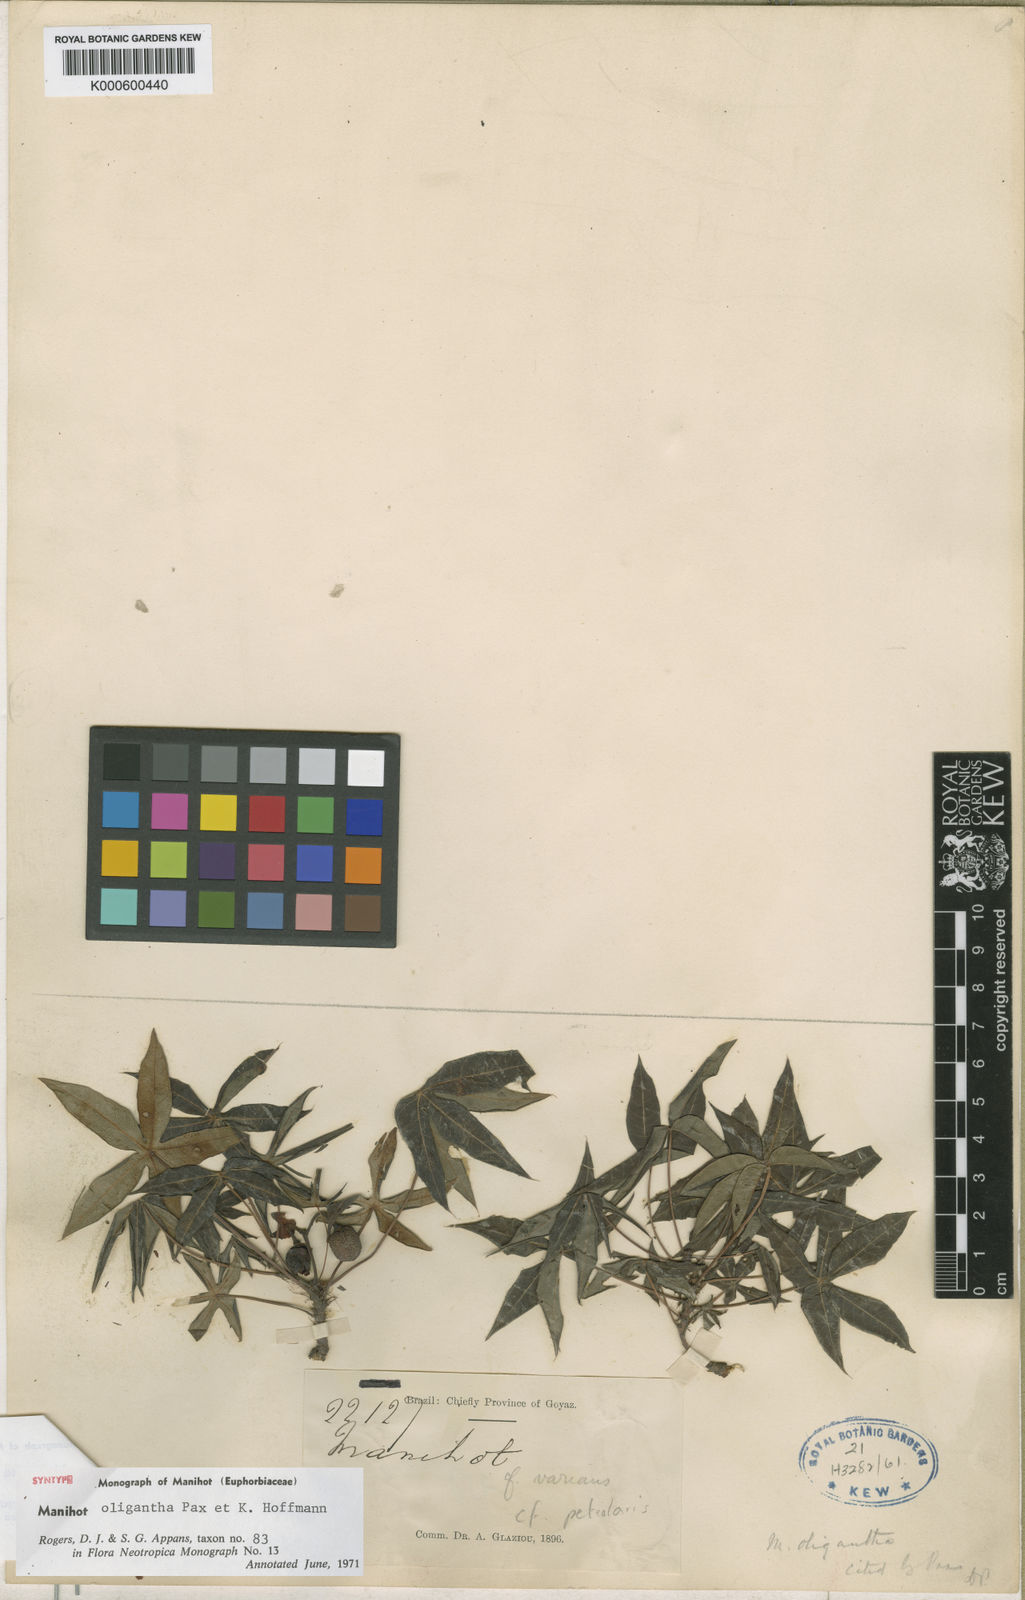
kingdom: Plantae
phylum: Tracheophyta
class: Magnoliopsida
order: Malpighiales
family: Euphorbiaceae
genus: Manihot
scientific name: Manihot oligantha
